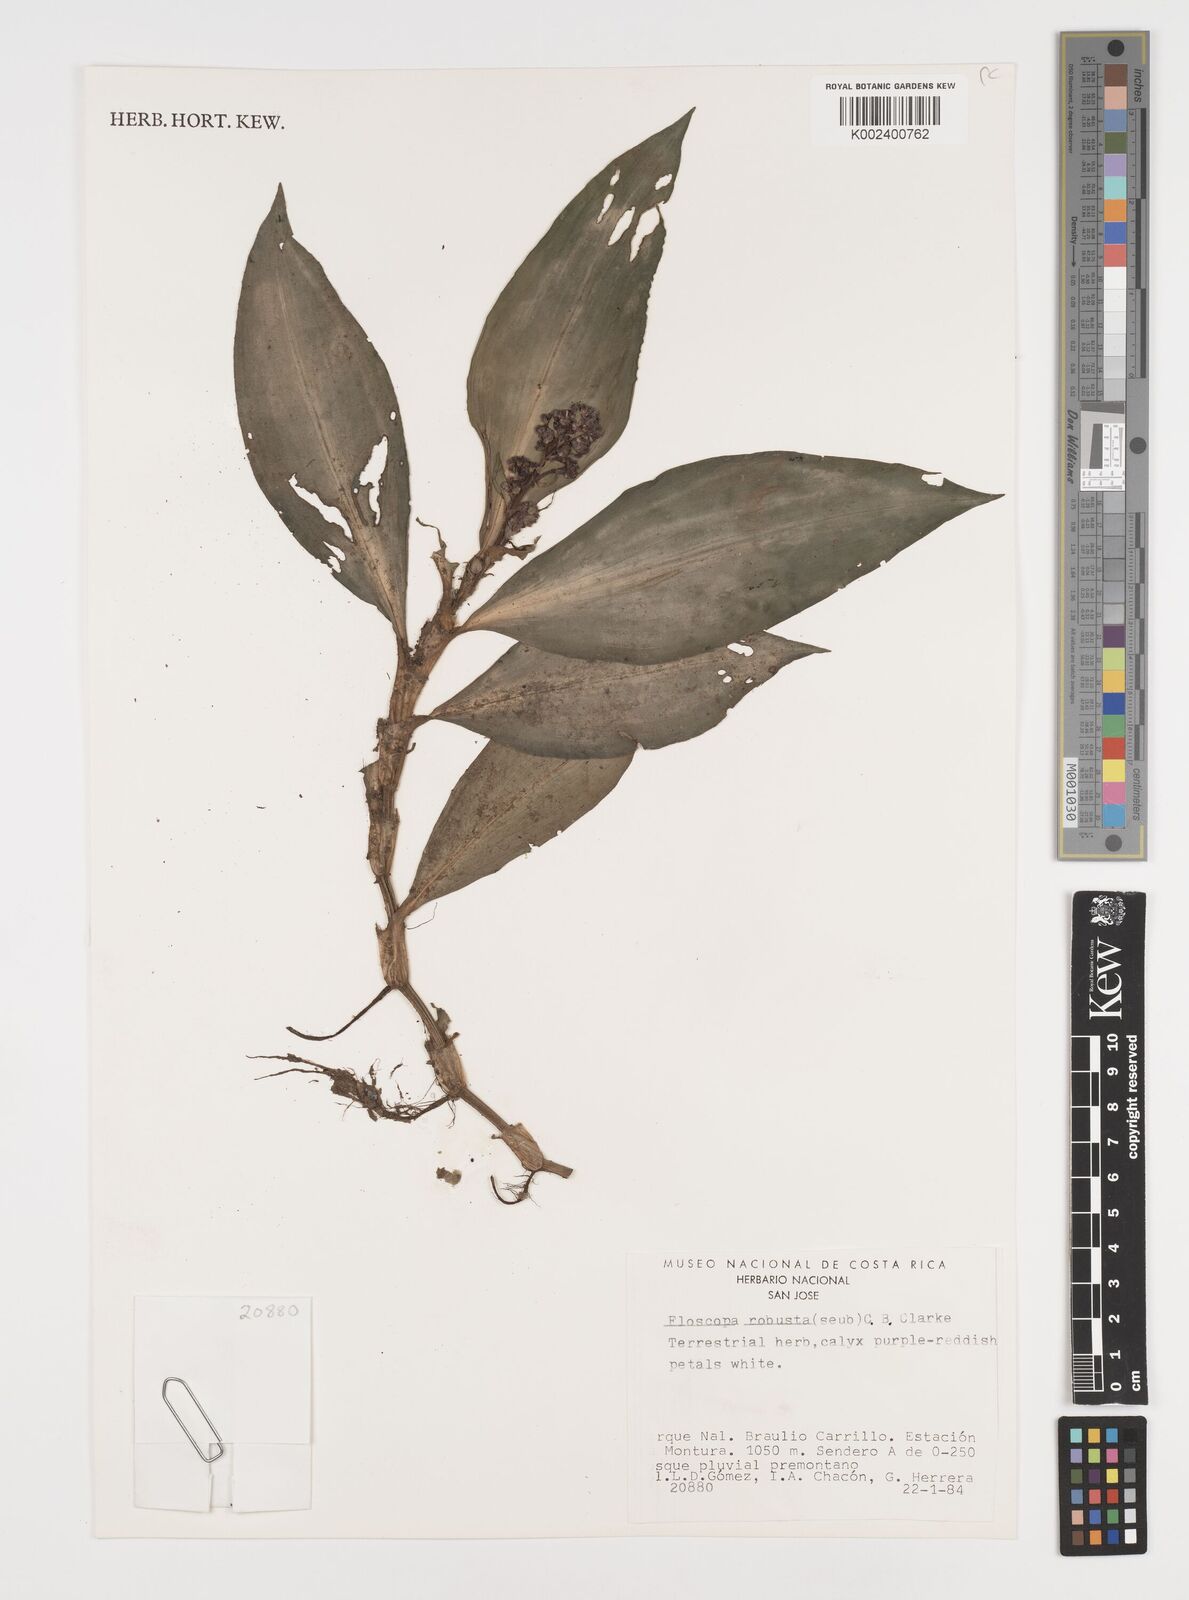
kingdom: Plantae
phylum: Tracheophyta
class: Liliopsida
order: Commelinales
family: Commelinaceae
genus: Floscopa
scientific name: Floscopa robusta
